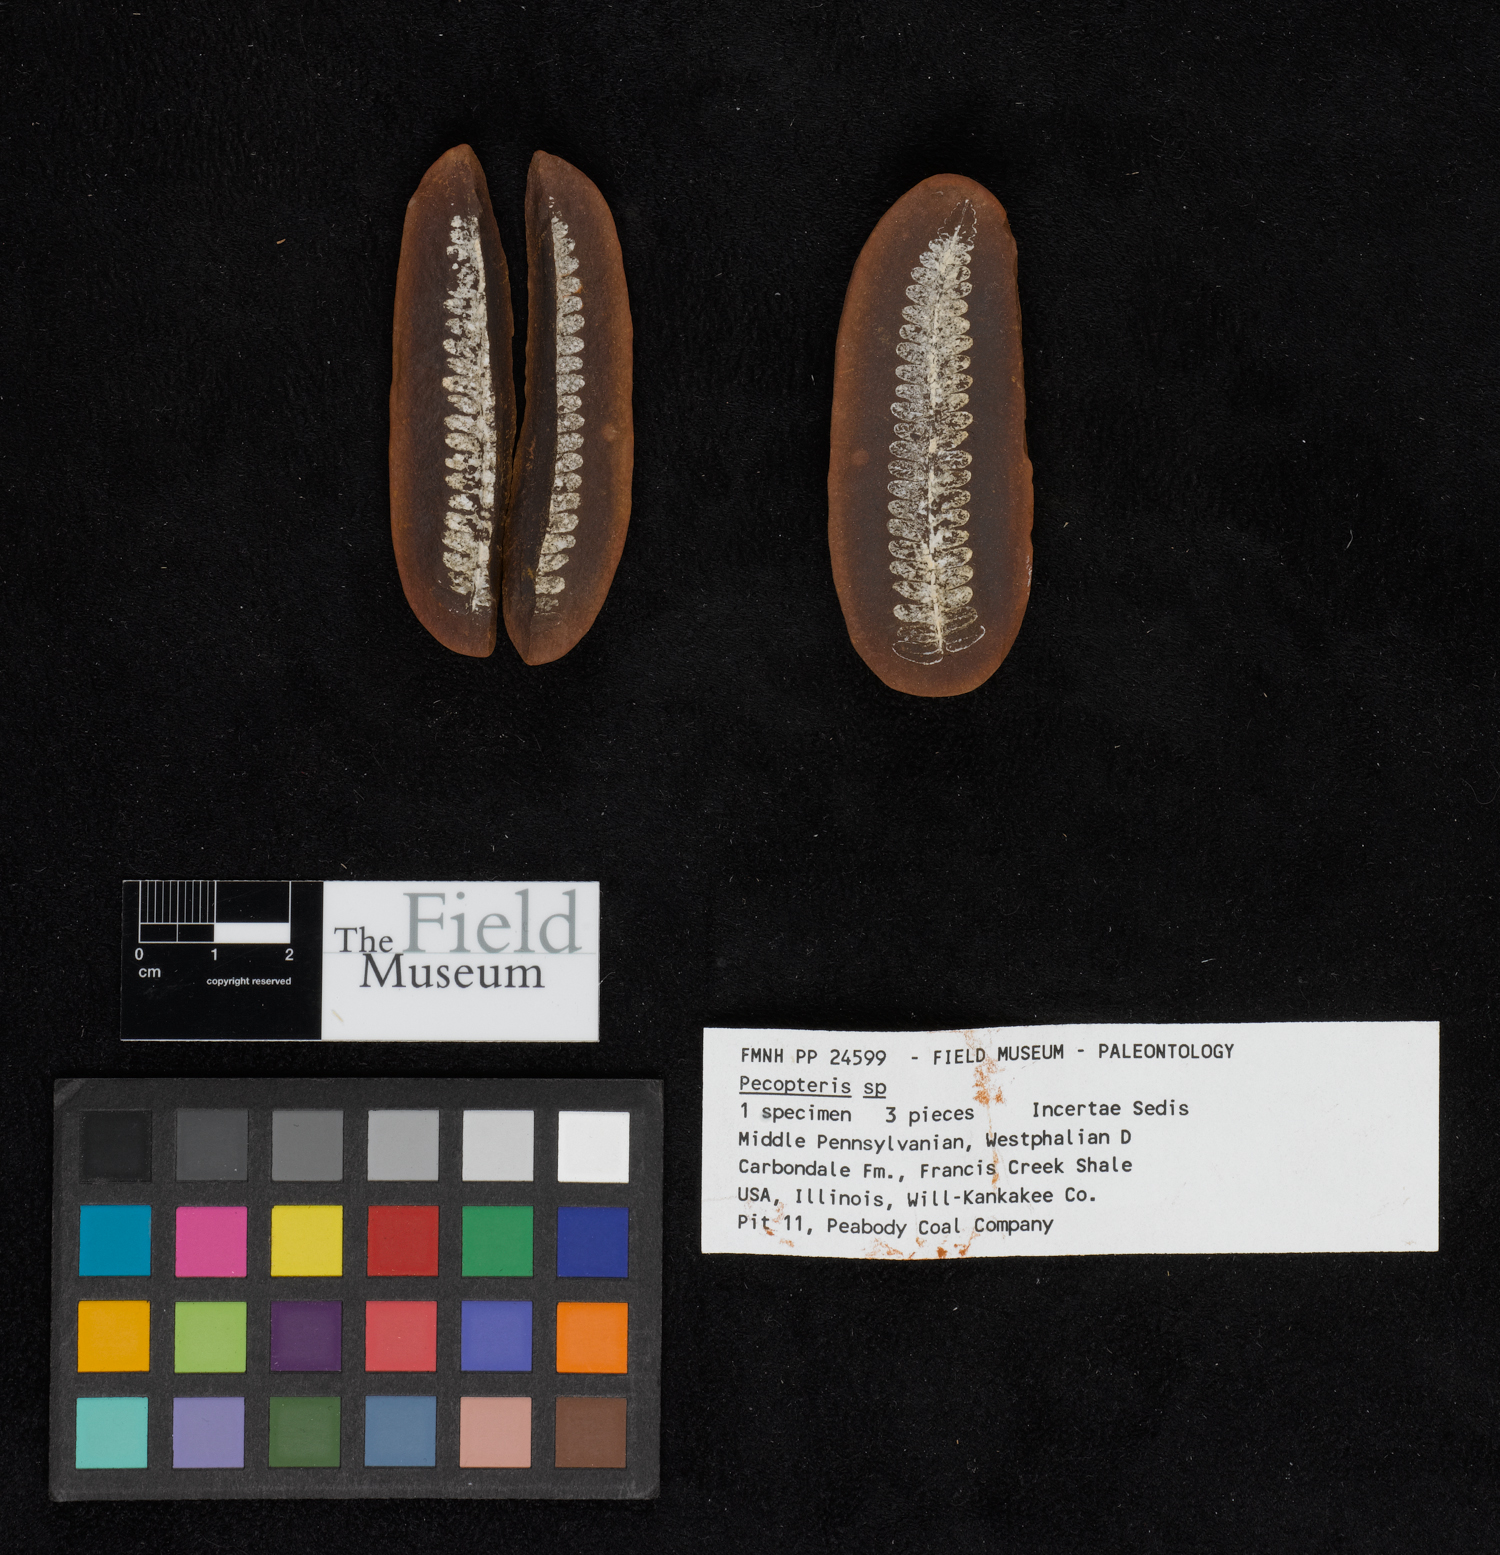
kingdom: Plantae
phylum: Tracheophyta
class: Polypodiopsida
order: Marattiales
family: Asterothecaceae
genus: Pecopteris
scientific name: Pecopteris
